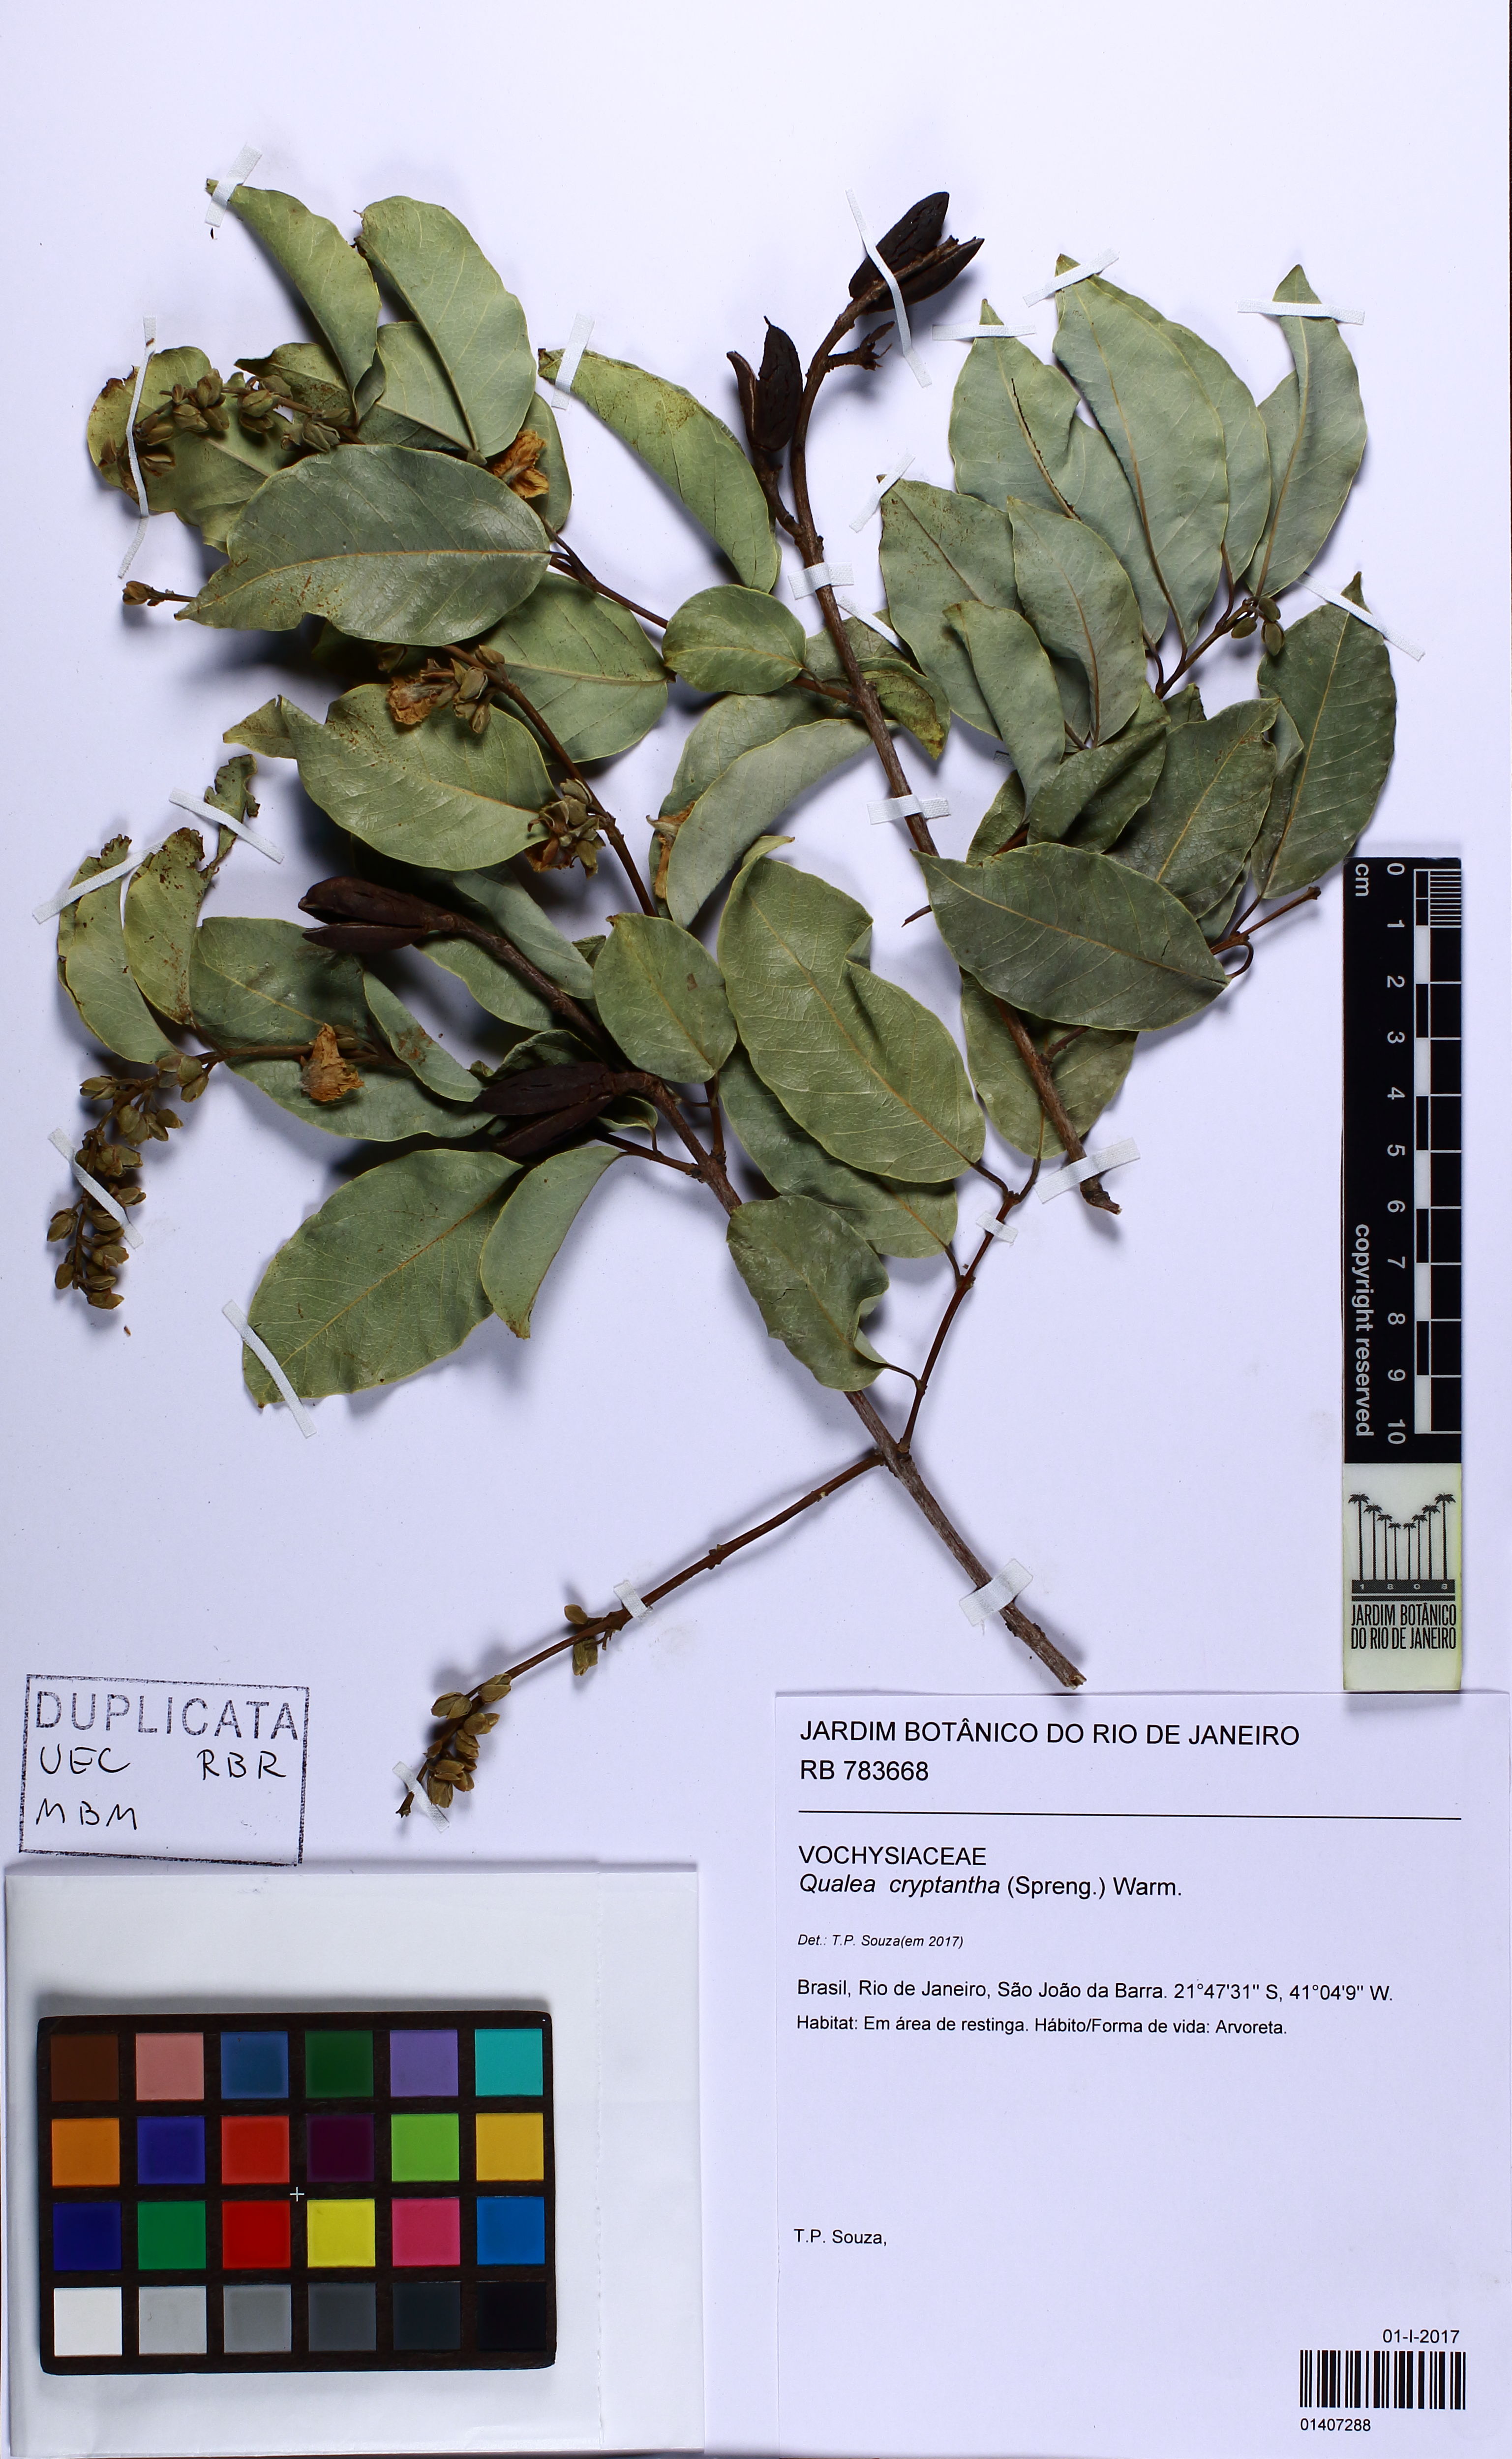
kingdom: Plantae
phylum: Tracheophyta
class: Magnoliopsida
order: Myrtales
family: Vochysiaceae
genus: Qualea
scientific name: Qualea cryptantha
